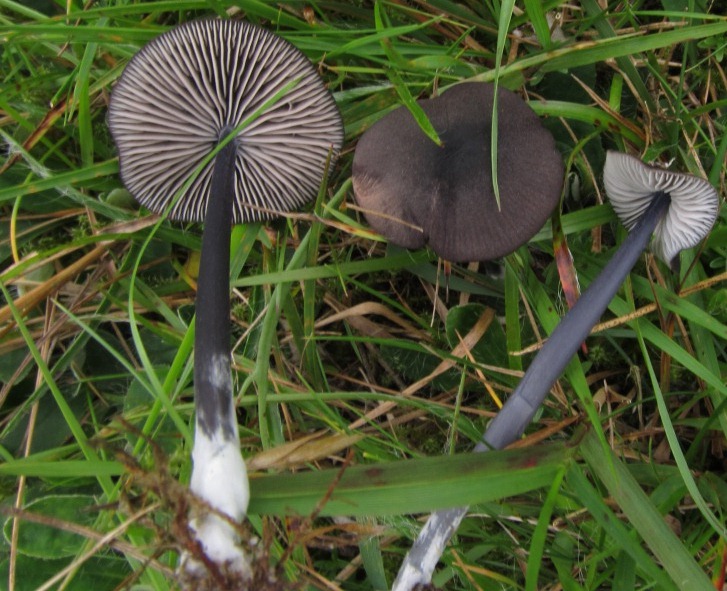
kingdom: Fungi
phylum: Basidiomycota
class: Agaricomycetes
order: Agaricales
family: Entolomataceae
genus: Entoloma
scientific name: Entoloma chalybeum
